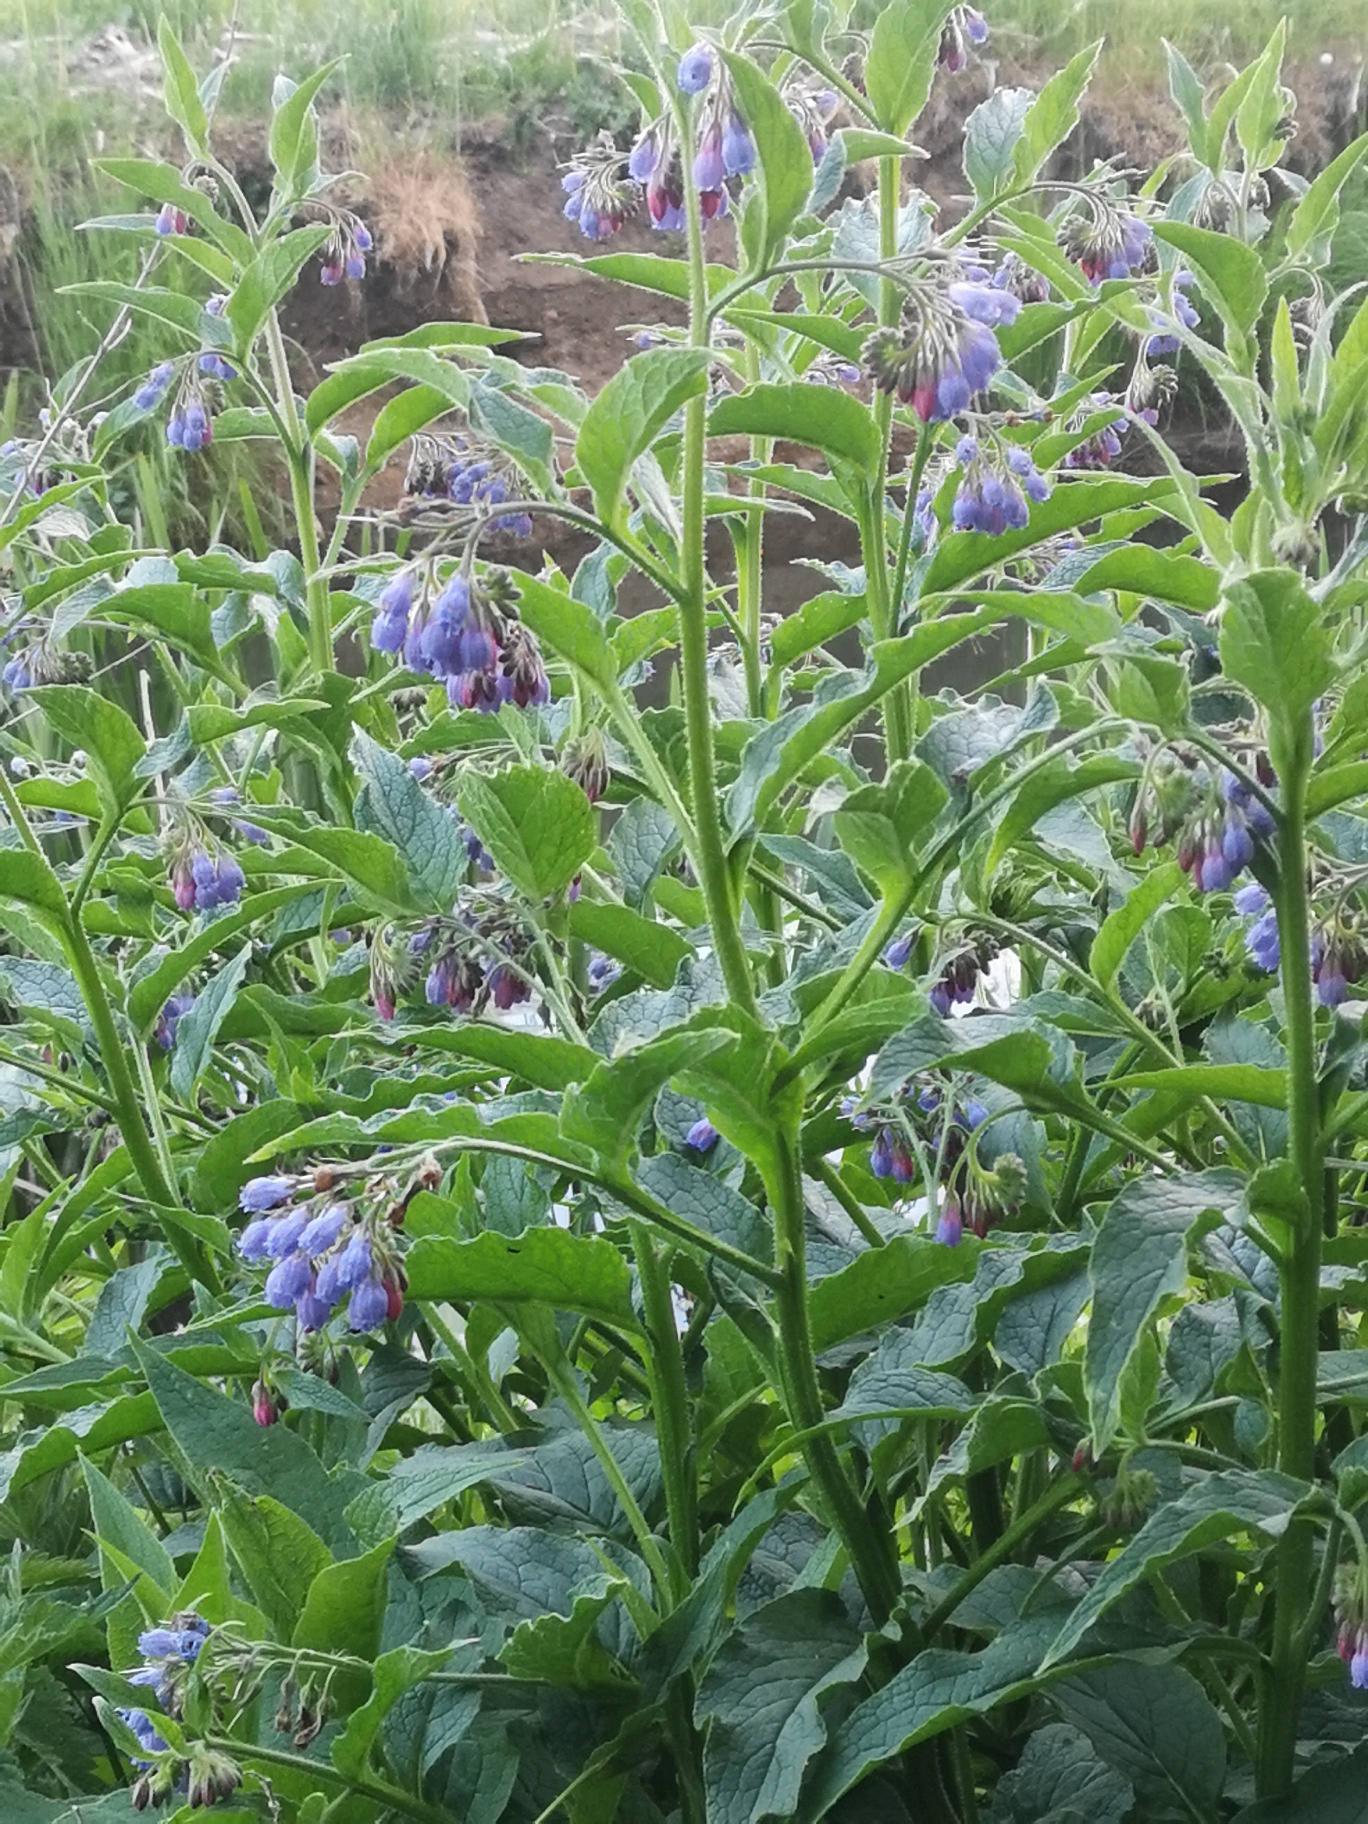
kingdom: Plantae
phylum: Tracheophyta
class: Magnoliopsida
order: Boraginales
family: Boraginaceae
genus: Symphytum
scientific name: Symphytum uplandicum
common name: Foder-kulsukker
